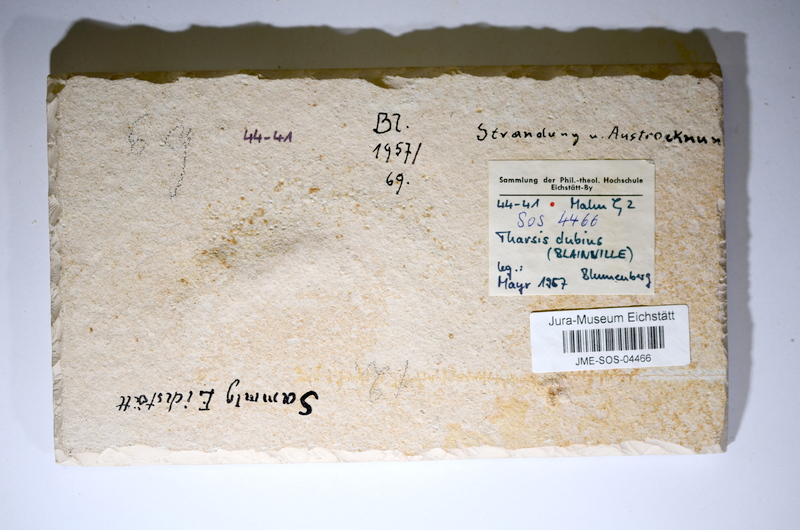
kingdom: Animalia
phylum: Chordata
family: Ascalaboidae
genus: Tharsis
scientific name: Tharsis dubius
